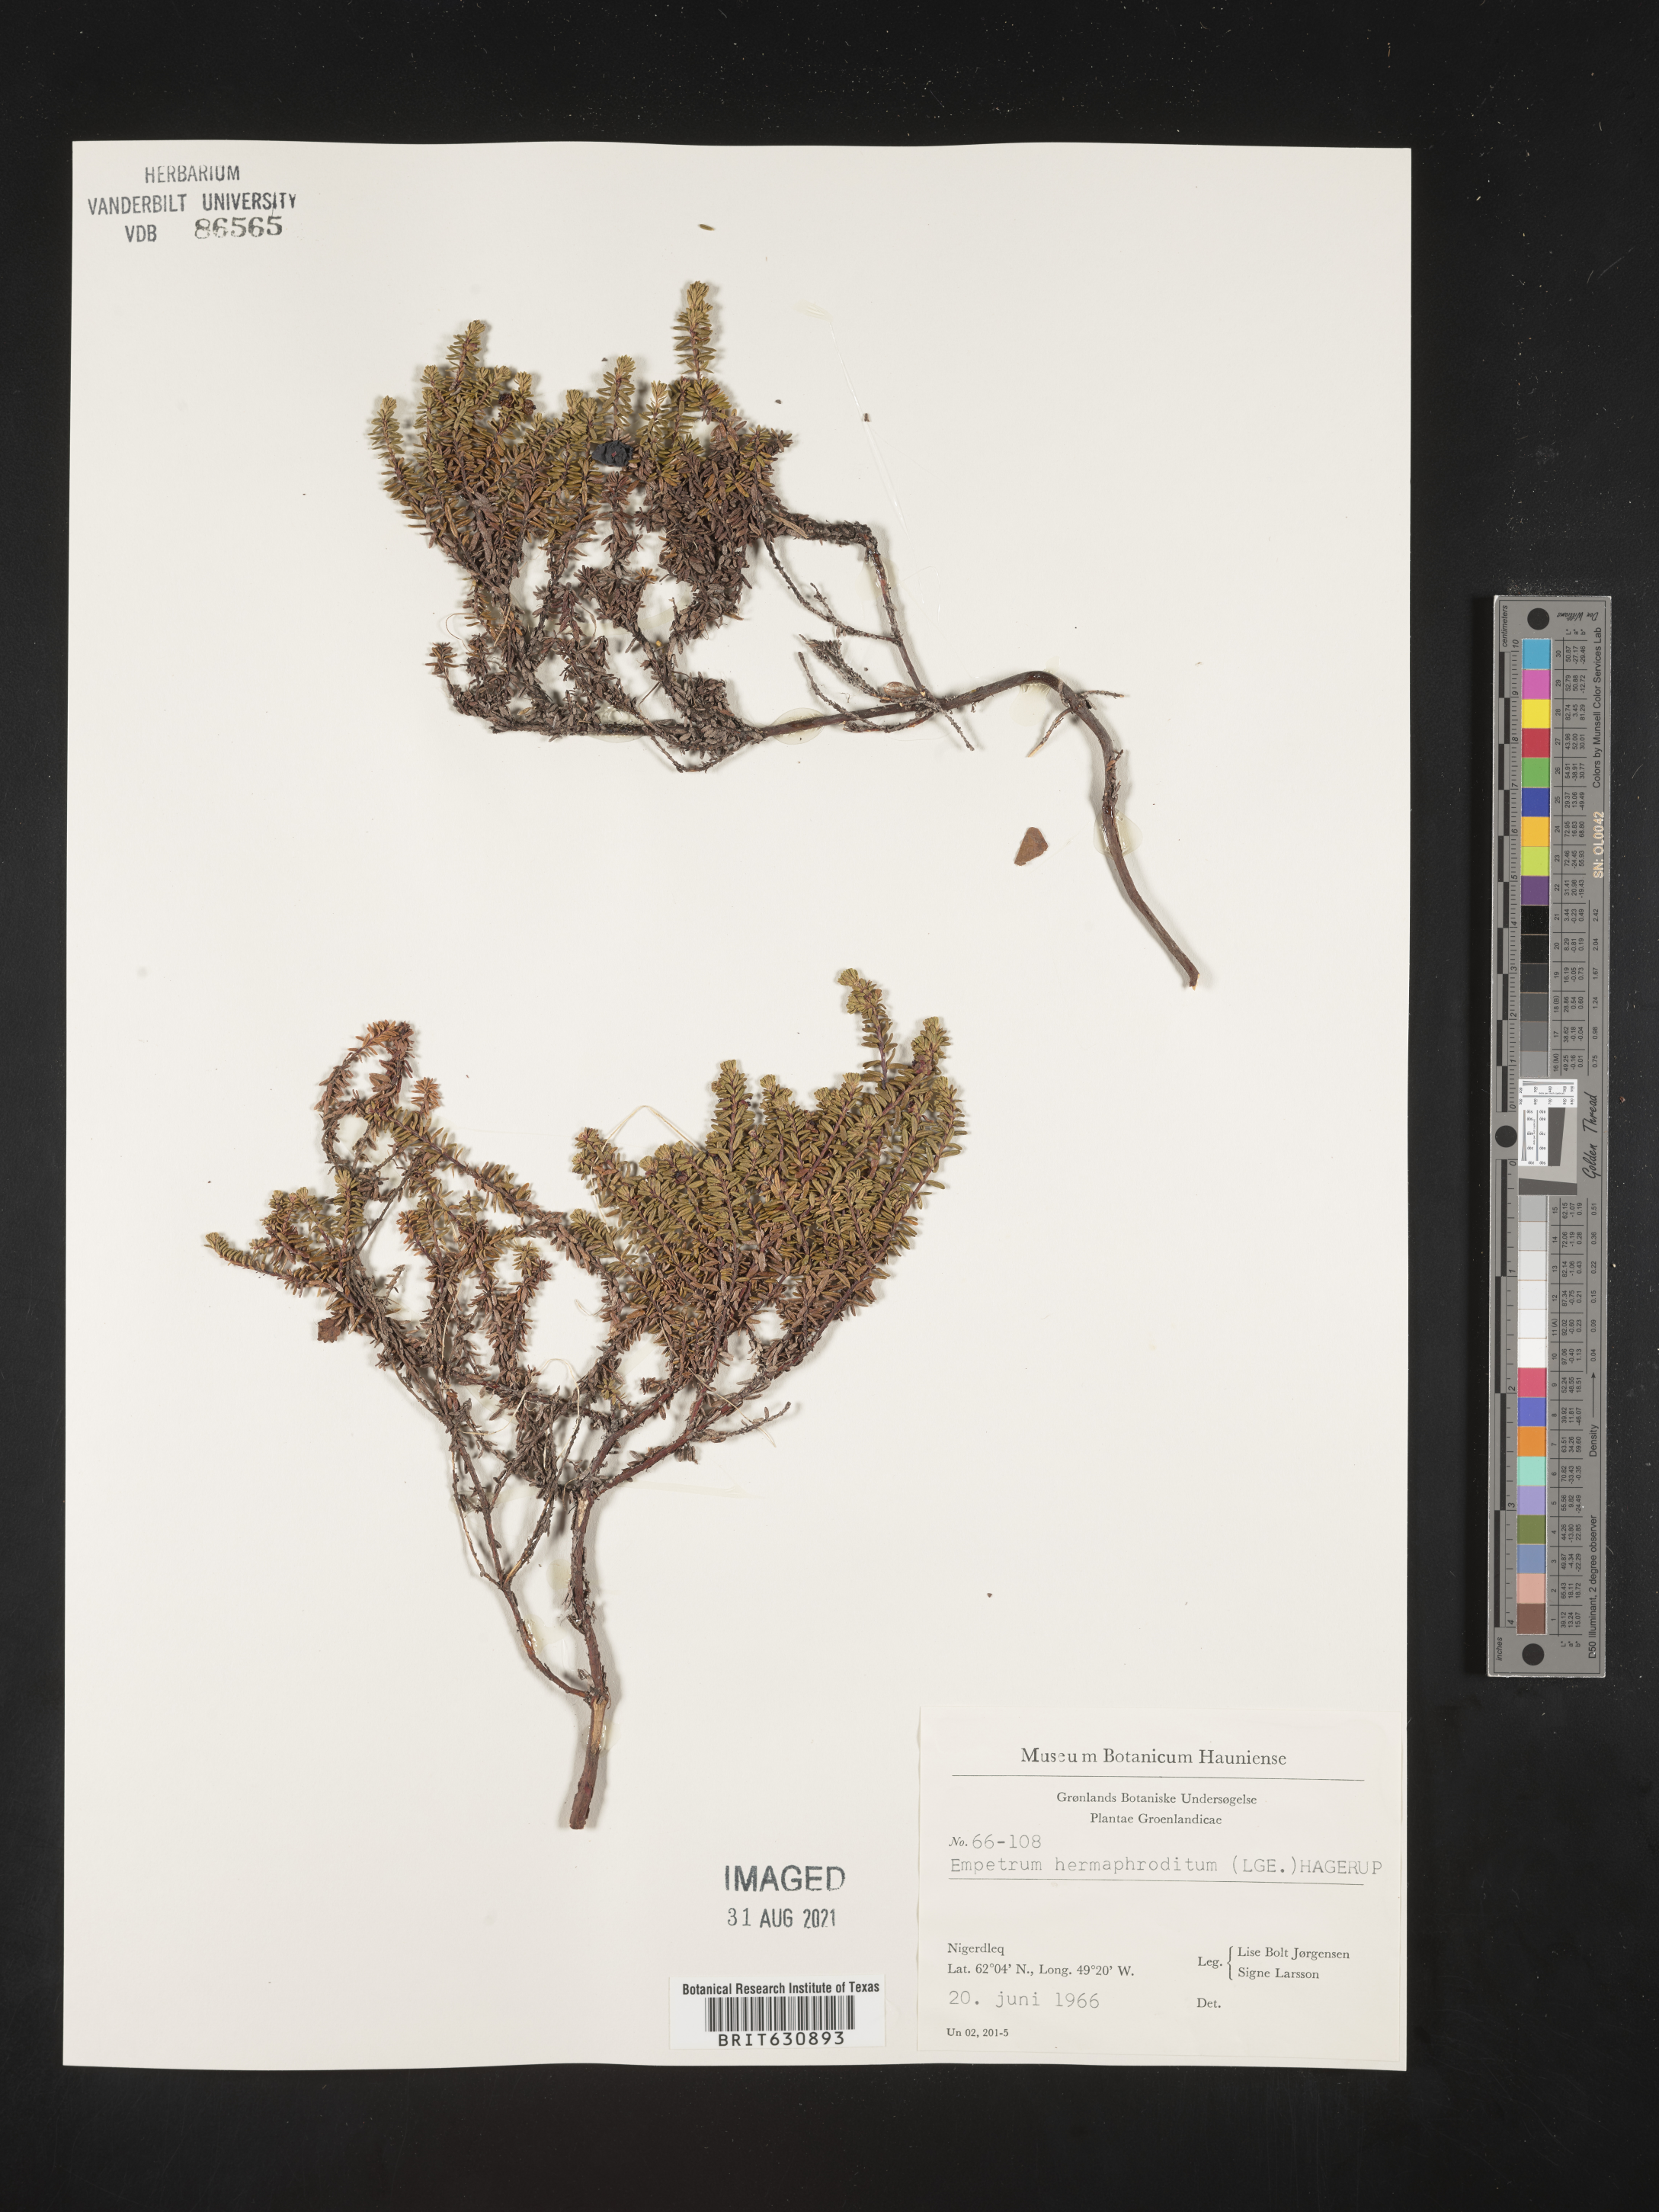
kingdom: Plantae
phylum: Tracheophyta
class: Magnoliopsida
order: Ericales
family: Ericaceae
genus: Empetrum
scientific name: Empetrum
